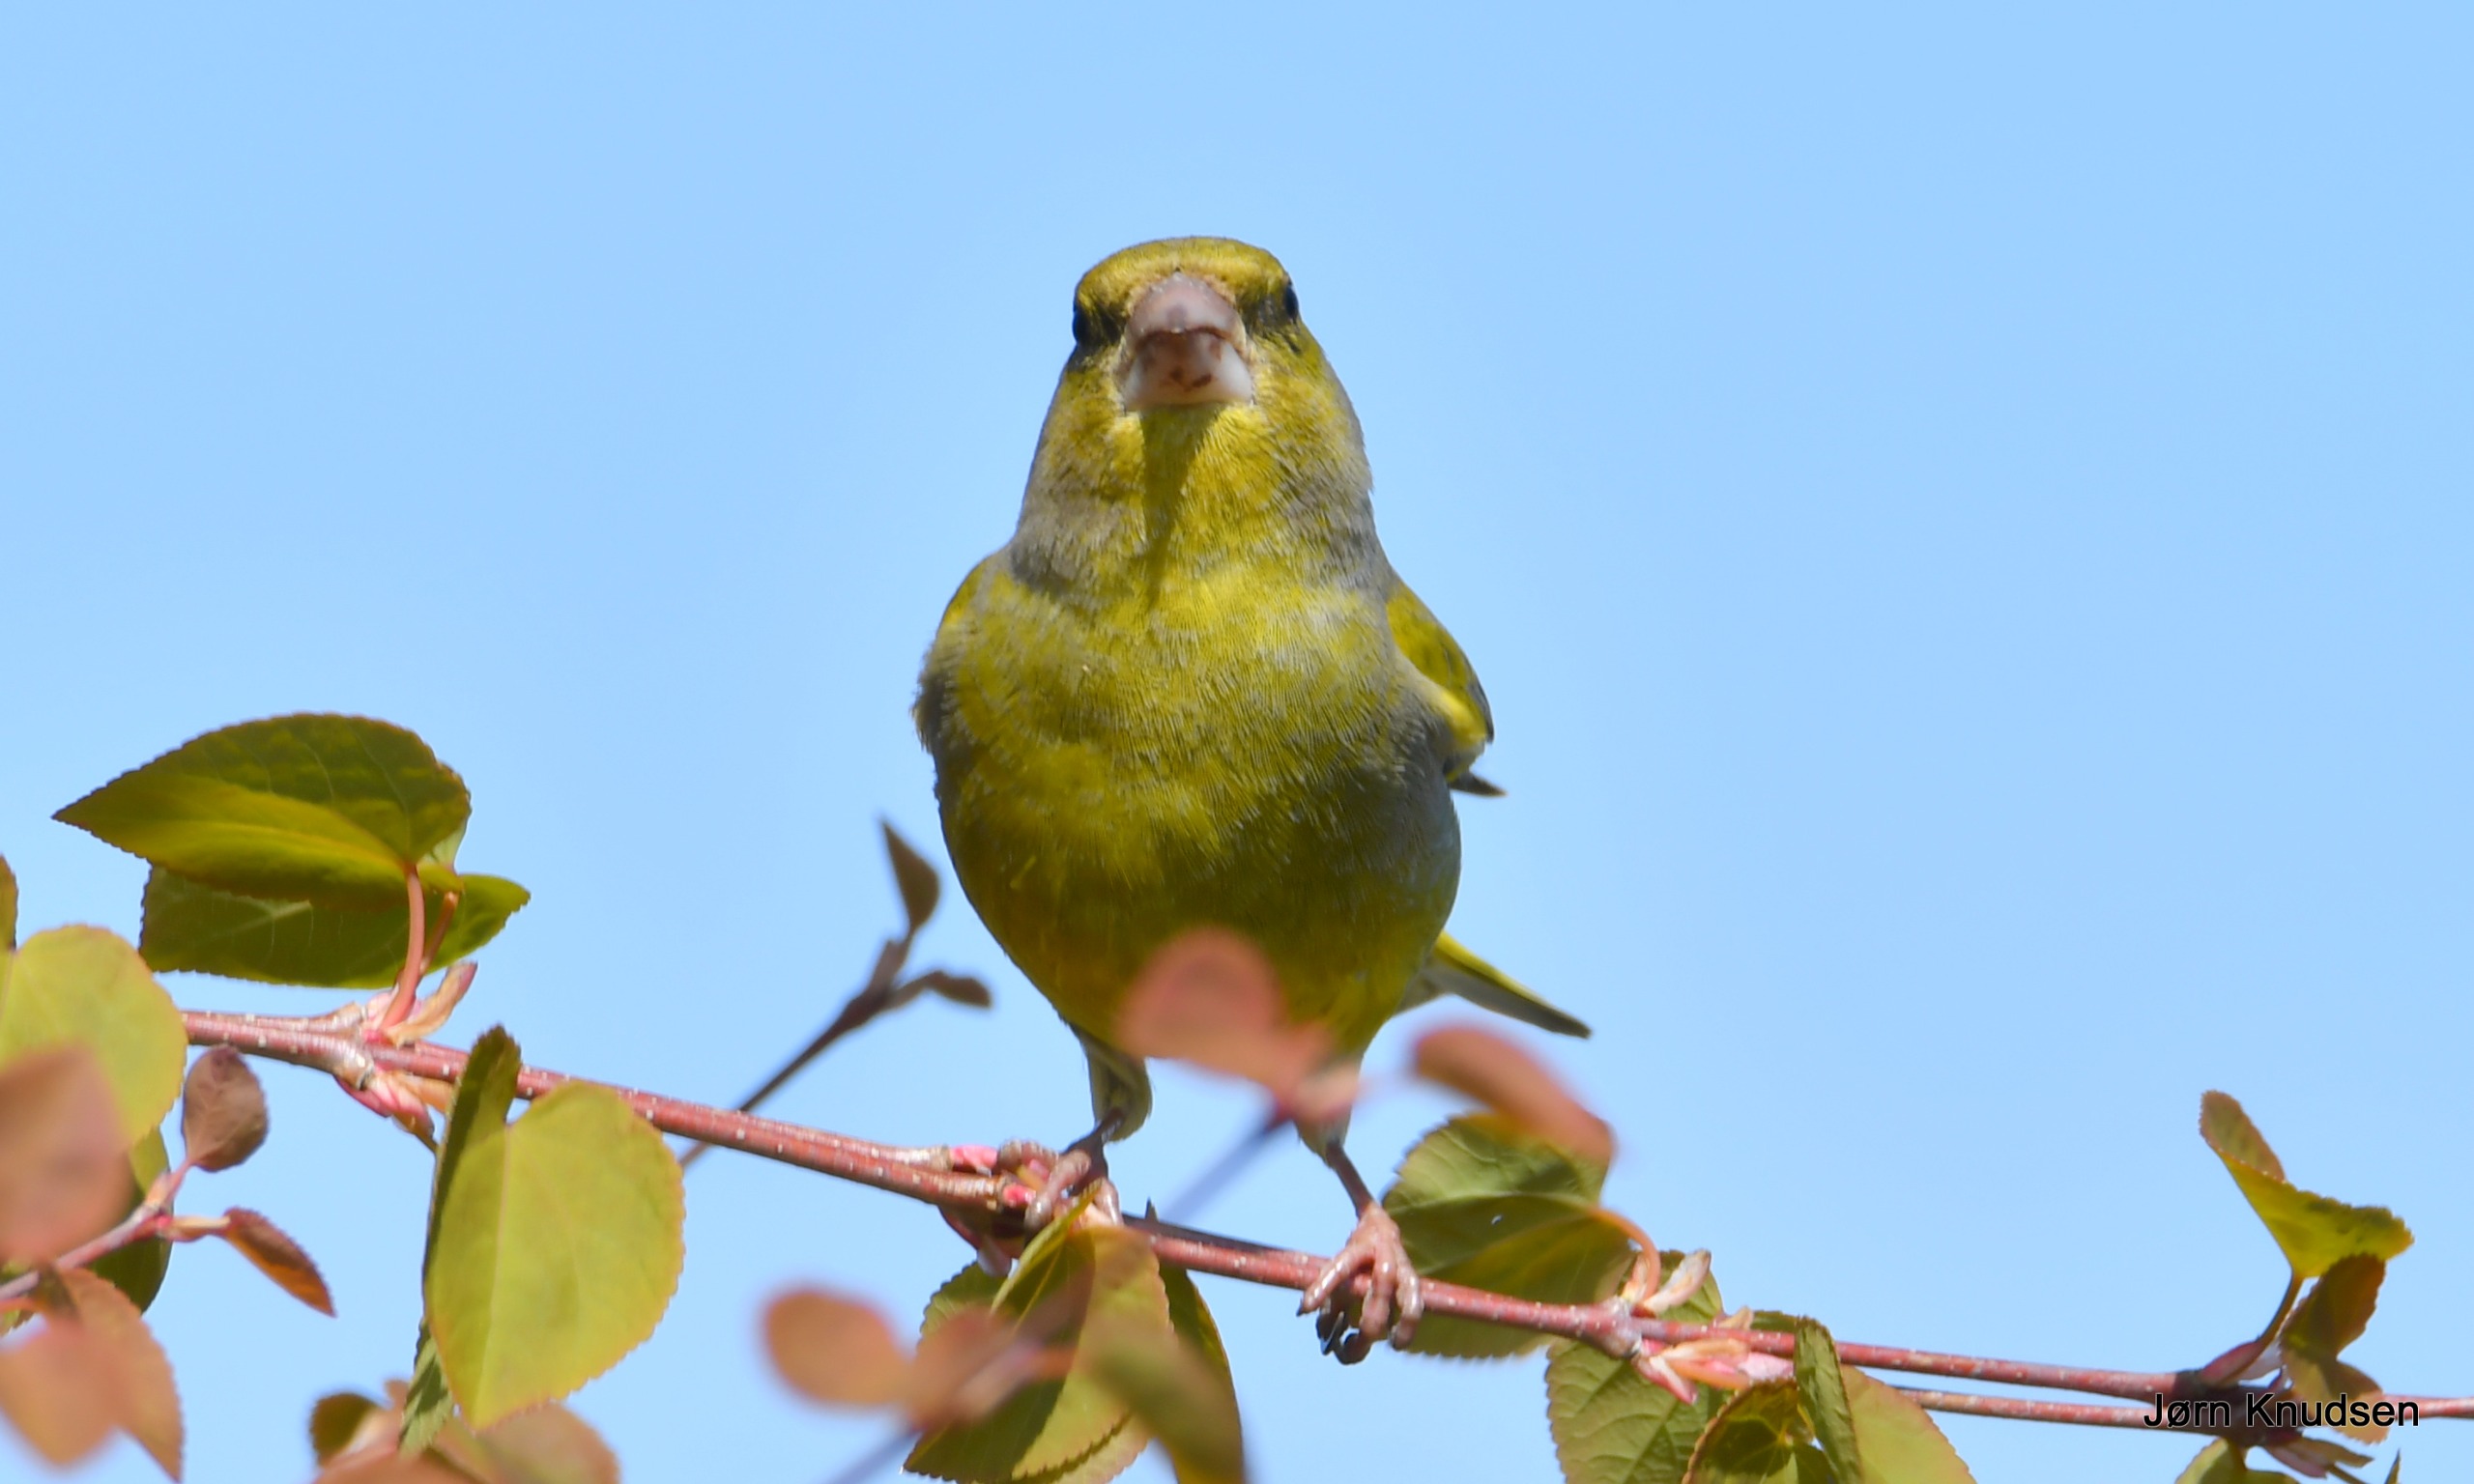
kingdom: Plantae
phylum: Tracheophyta
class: Liliopsida
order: Poales
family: Poaceae
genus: Chloris
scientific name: Chloris chloris
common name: Grønirisk
